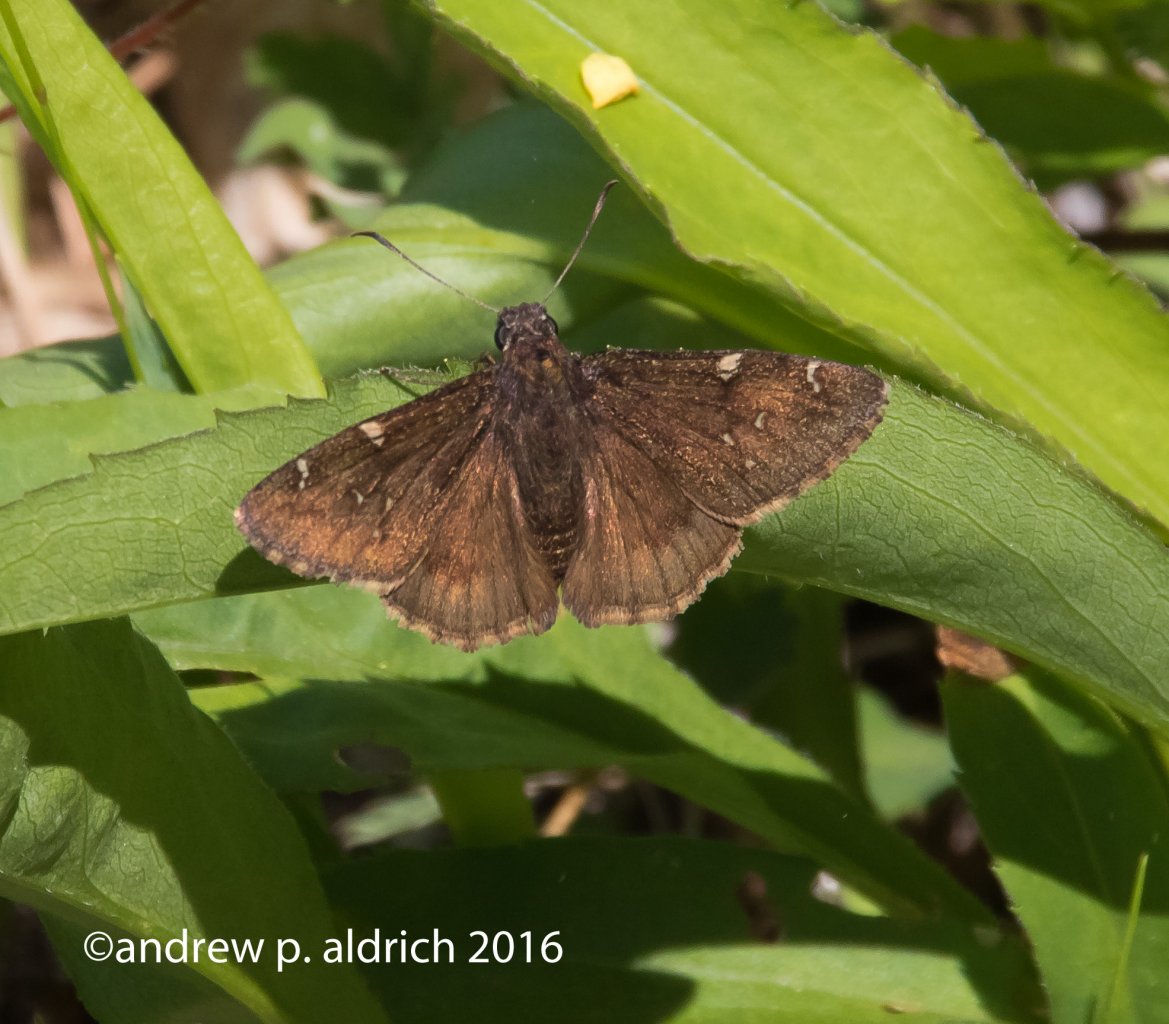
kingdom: Animalia
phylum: Arthropoda
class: Insecta
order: Lepidoptera
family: Hesperiidae
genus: Autochton
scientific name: Autochton
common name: Northern Cloudywing
